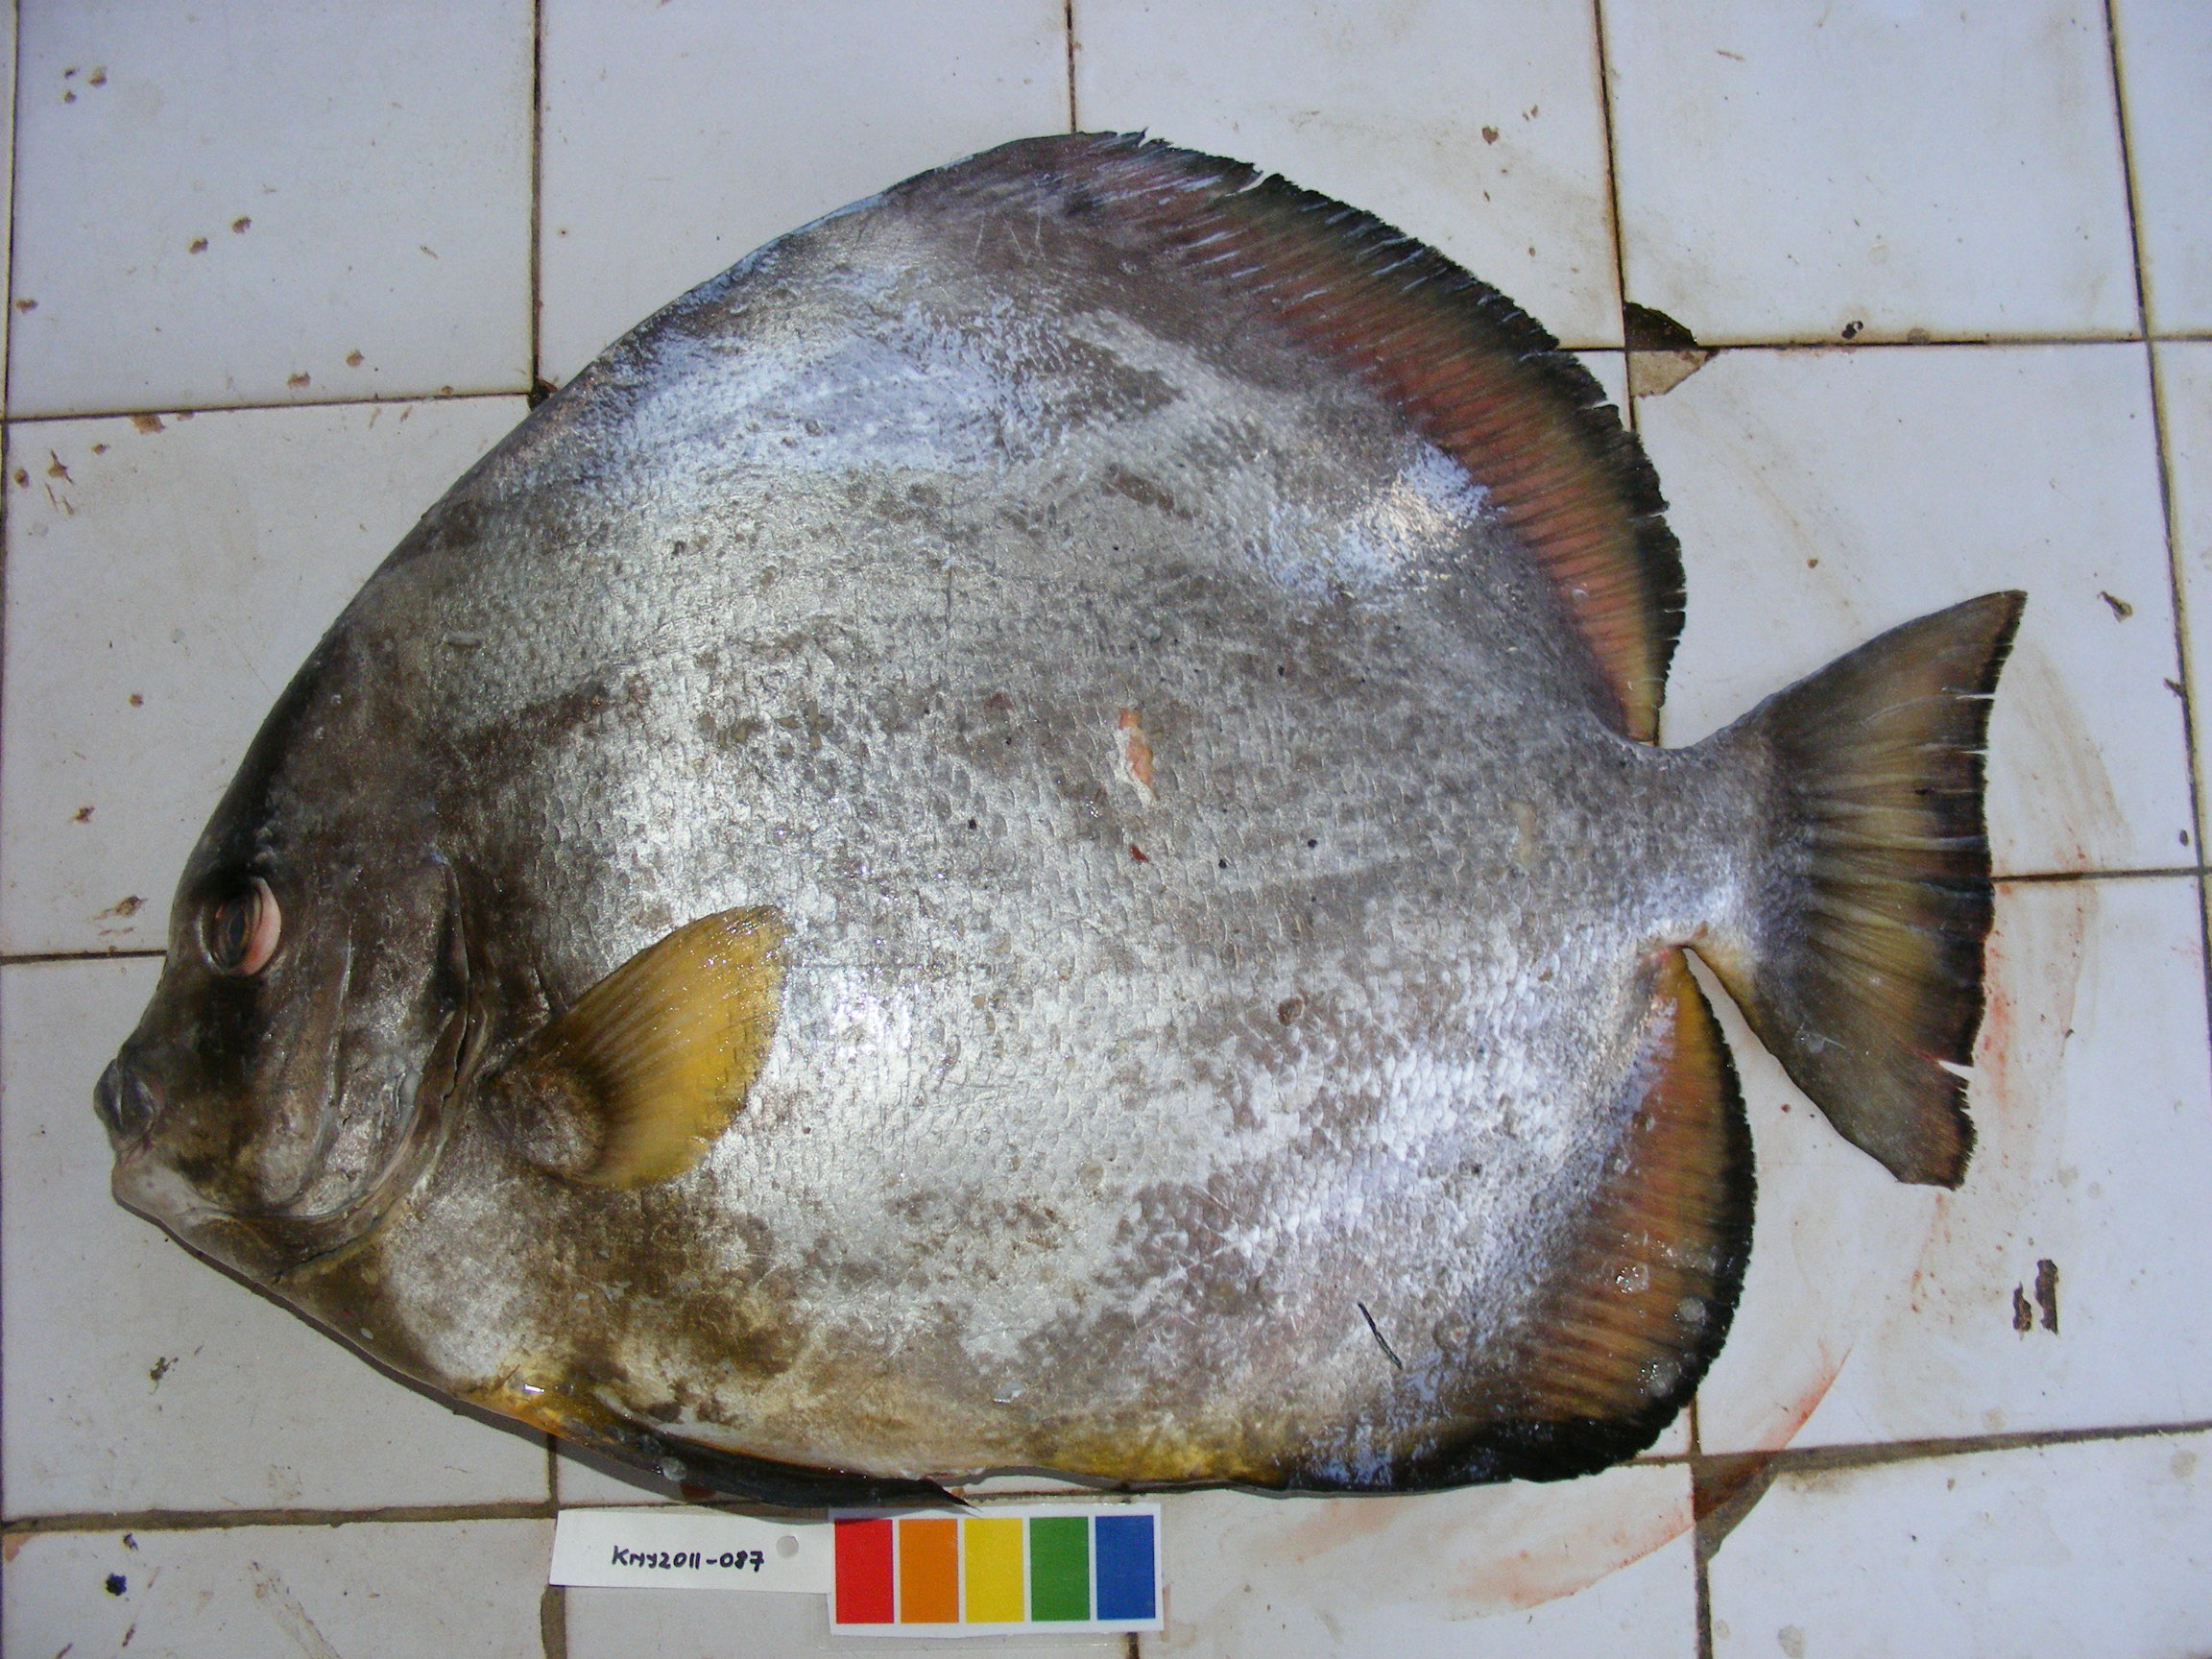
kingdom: Animalia
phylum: Chordata
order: Perciformes
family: Ephippidae
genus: Platax
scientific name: Platax orbicularis
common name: Batfish
